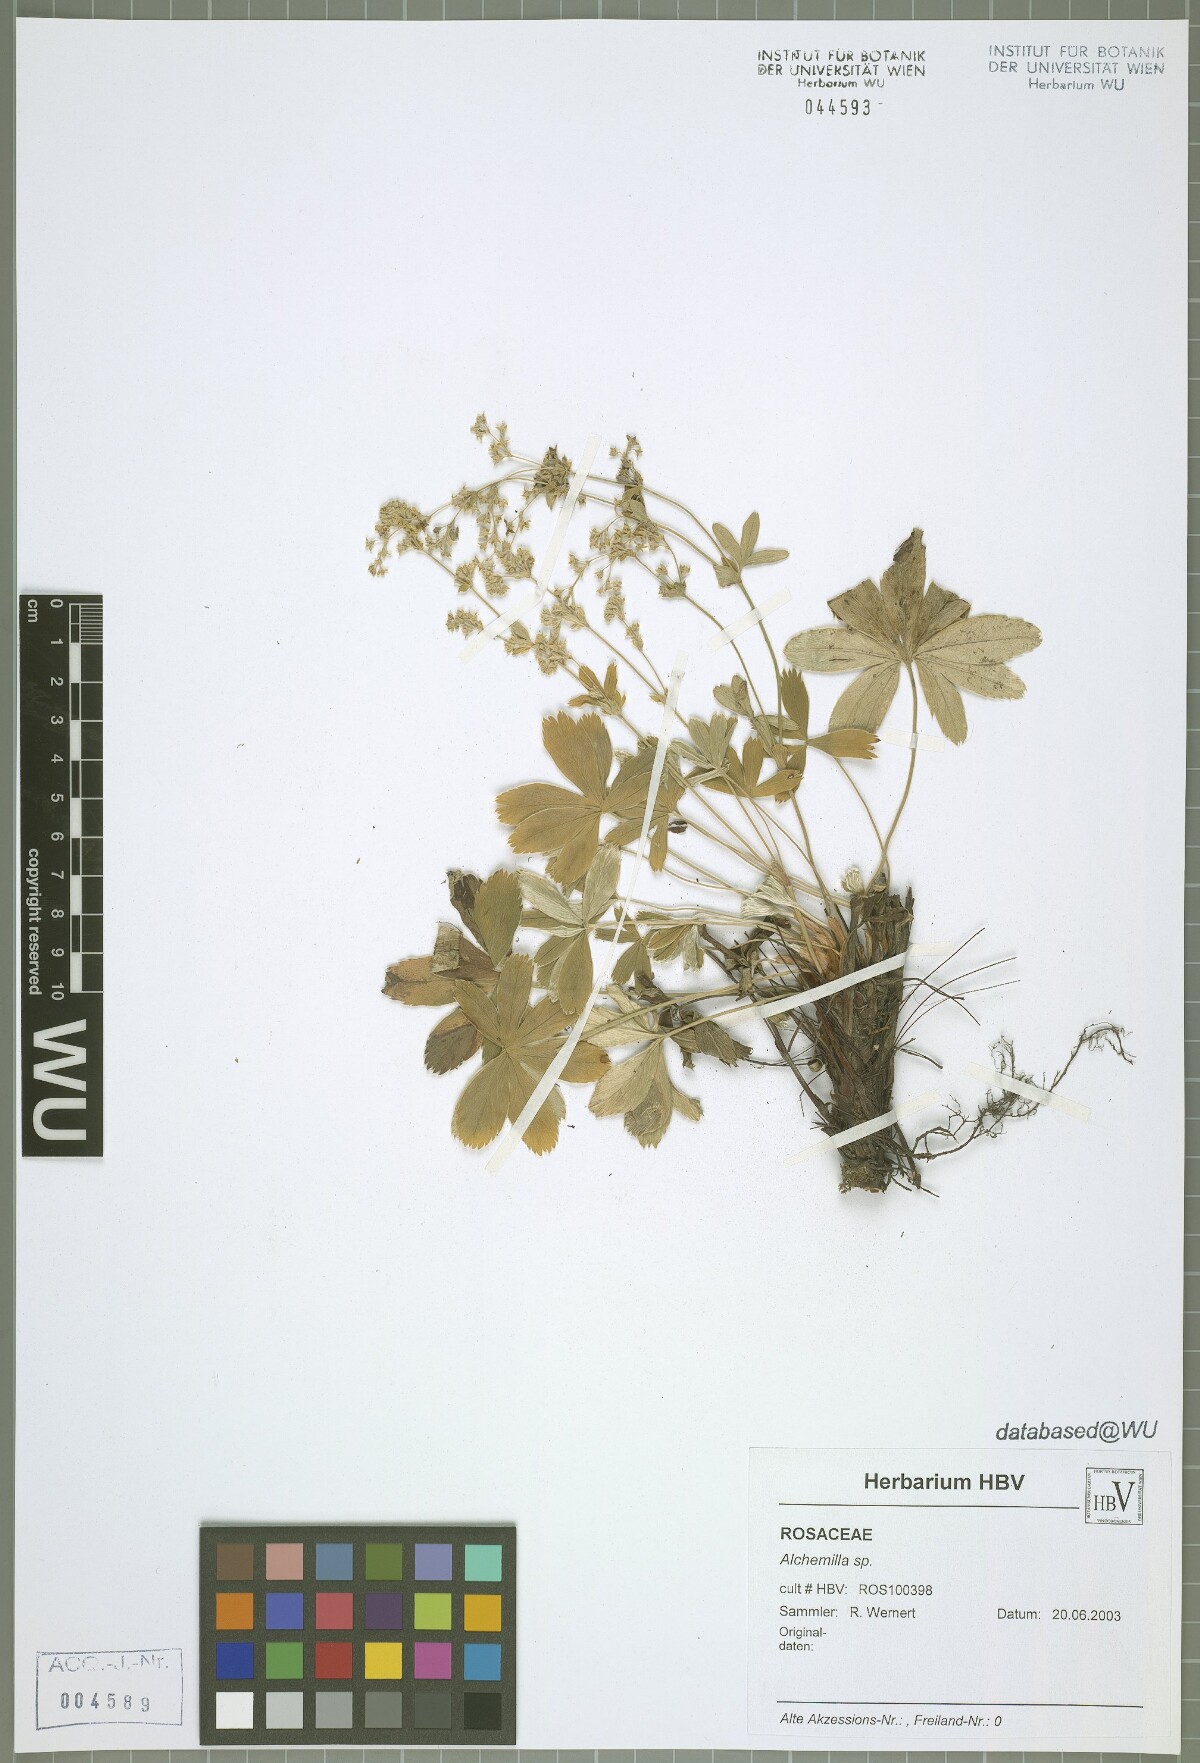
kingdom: Plantae
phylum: Tracheophyta
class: Magnoliopsida
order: Rosales
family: Rosaceae
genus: Alchemilla
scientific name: Alchemilla
